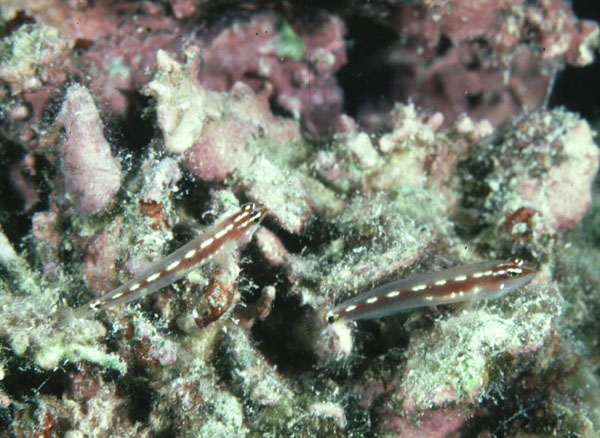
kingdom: Animalia
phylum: Chordata
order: Perciformes
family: Gobiidae
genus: Eviota
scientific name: Eviota sebreei
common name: Sebree's pygmy goby
